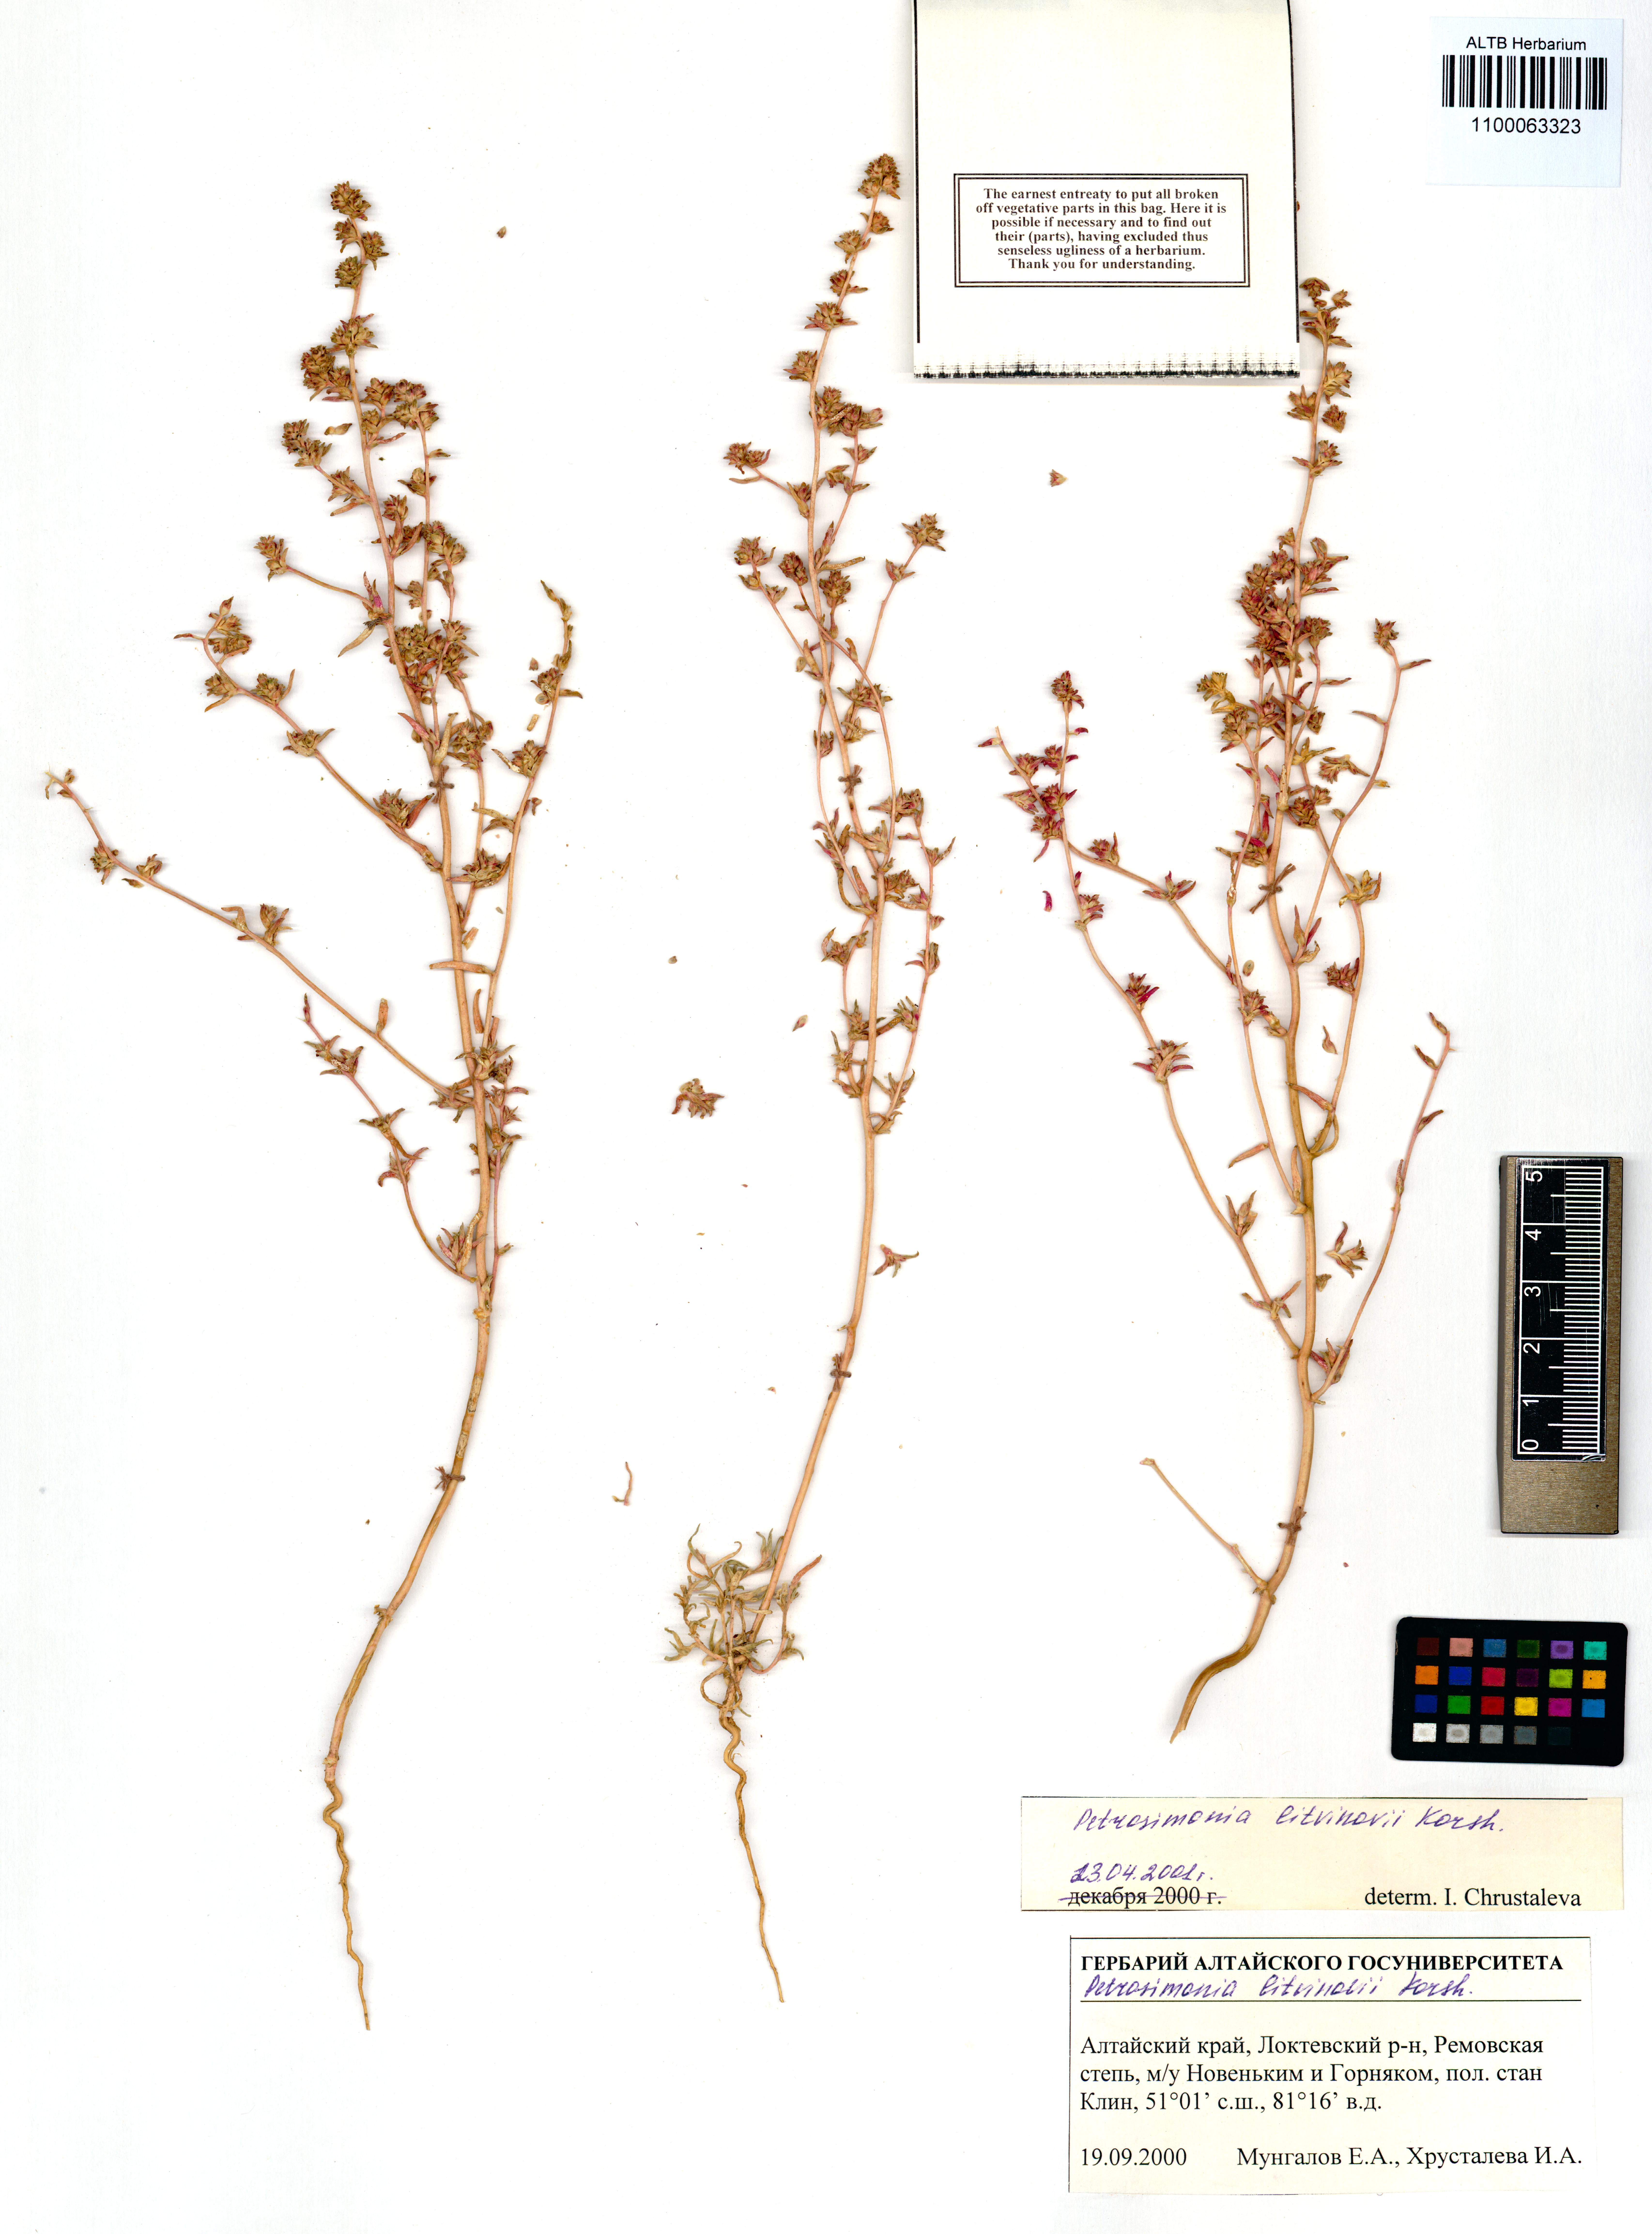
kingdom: Plantae
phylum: Tracheophyta
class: Magnoliopsida
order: Caryophyllales
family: Amaranthaceae
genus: Petrosimonia
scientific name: Petrosimonia litvinowi
